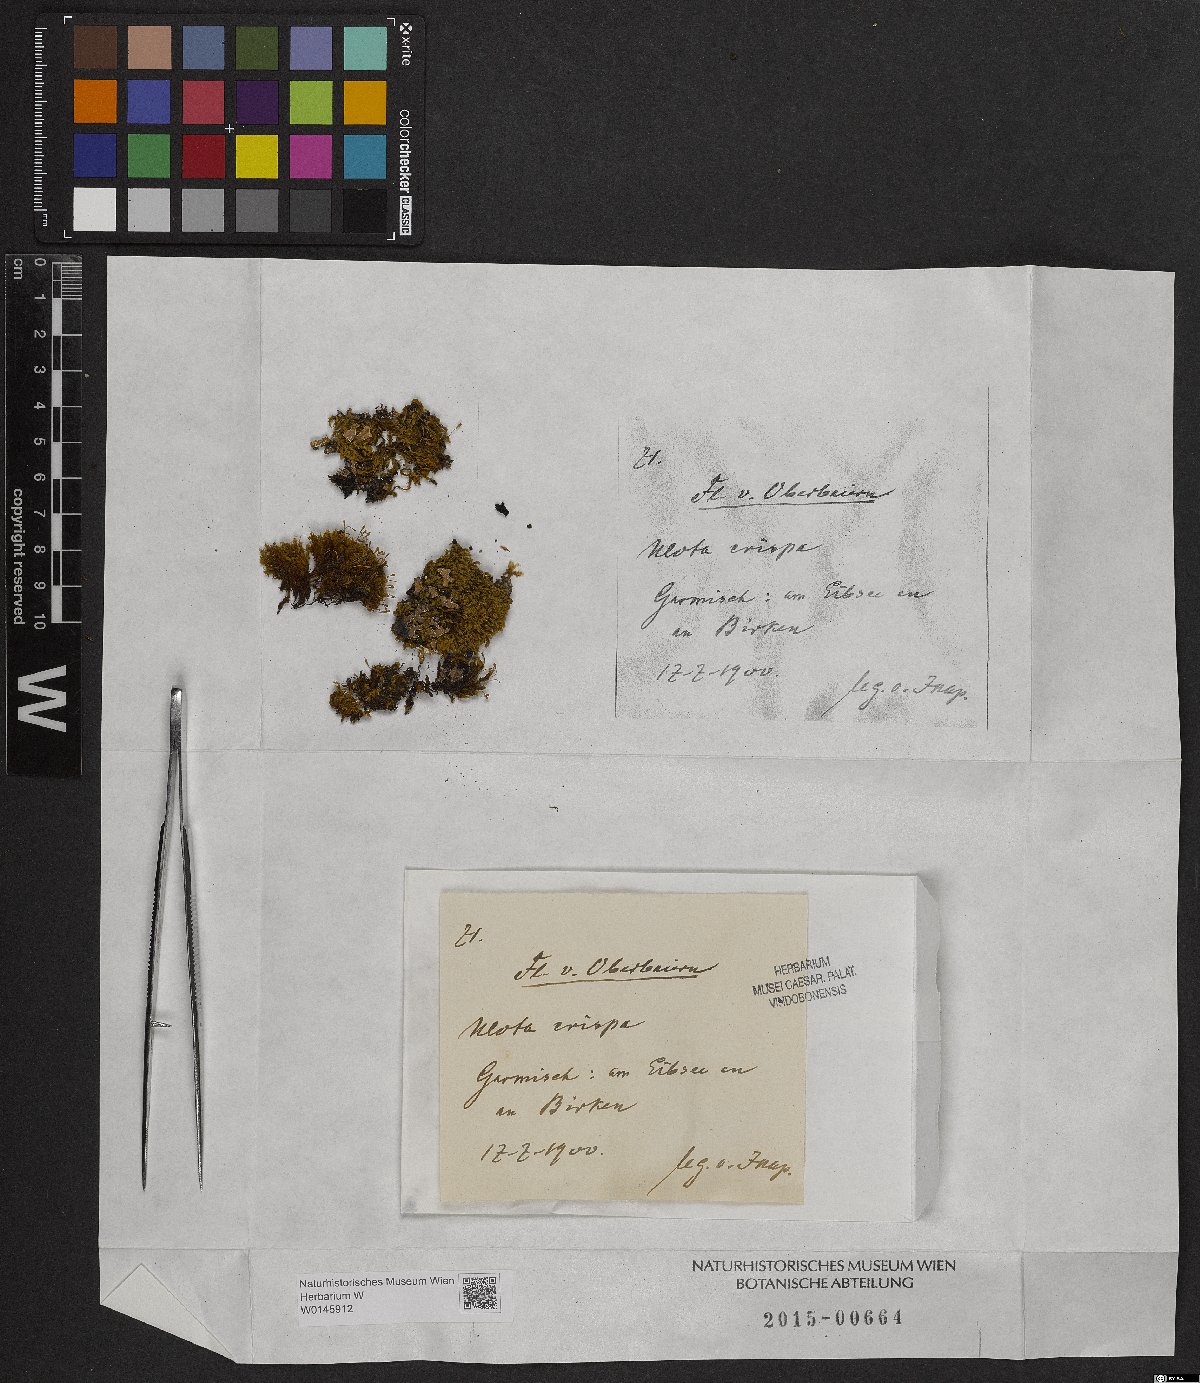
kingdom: Plantae
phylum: Bryophyta
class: Bryopsida
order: Orthotrichales
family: Orthotrichaceae
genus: Ulota
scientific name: Ulota crispa
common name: Crisped pincushion moss
